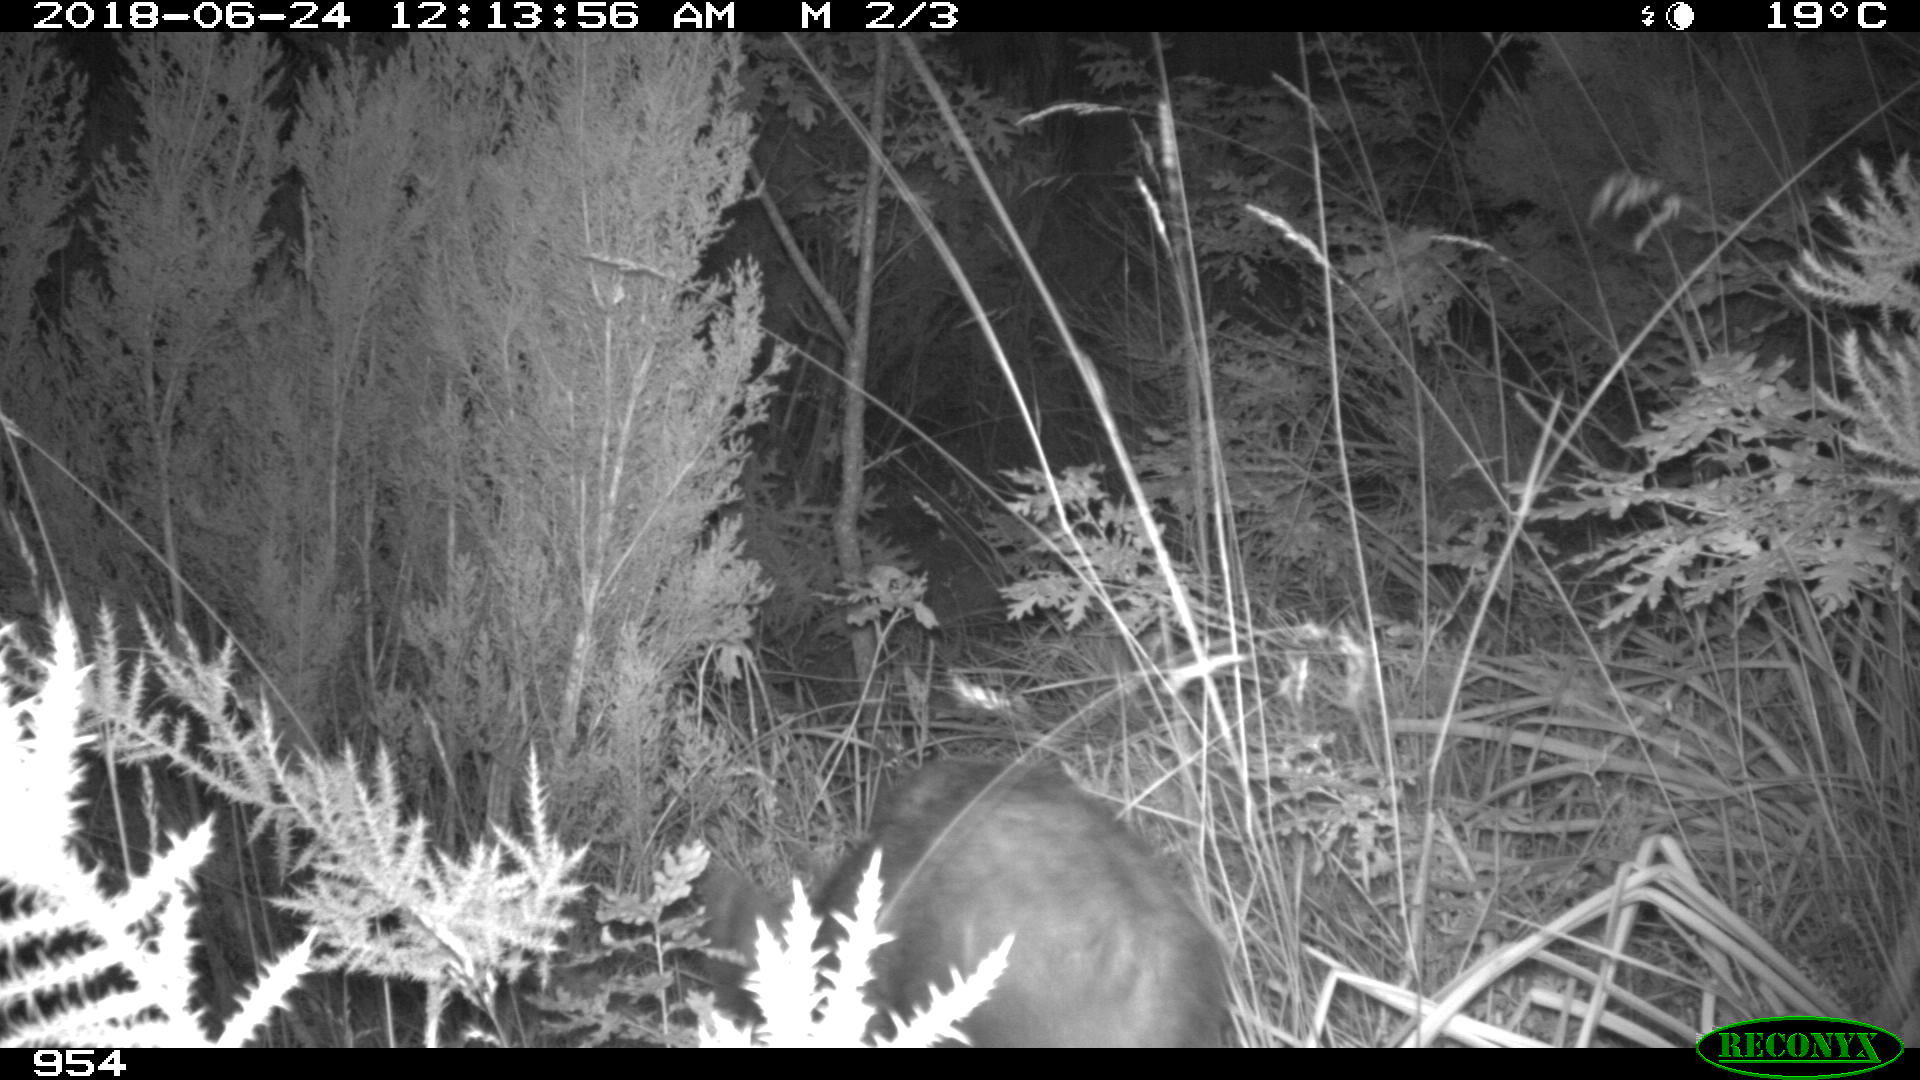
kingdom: Animalia
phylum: Chordata
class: Mammalia
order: Artiodactyla
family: Suidae
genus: Sus
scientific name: Sus scrofa
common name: Wild boar
